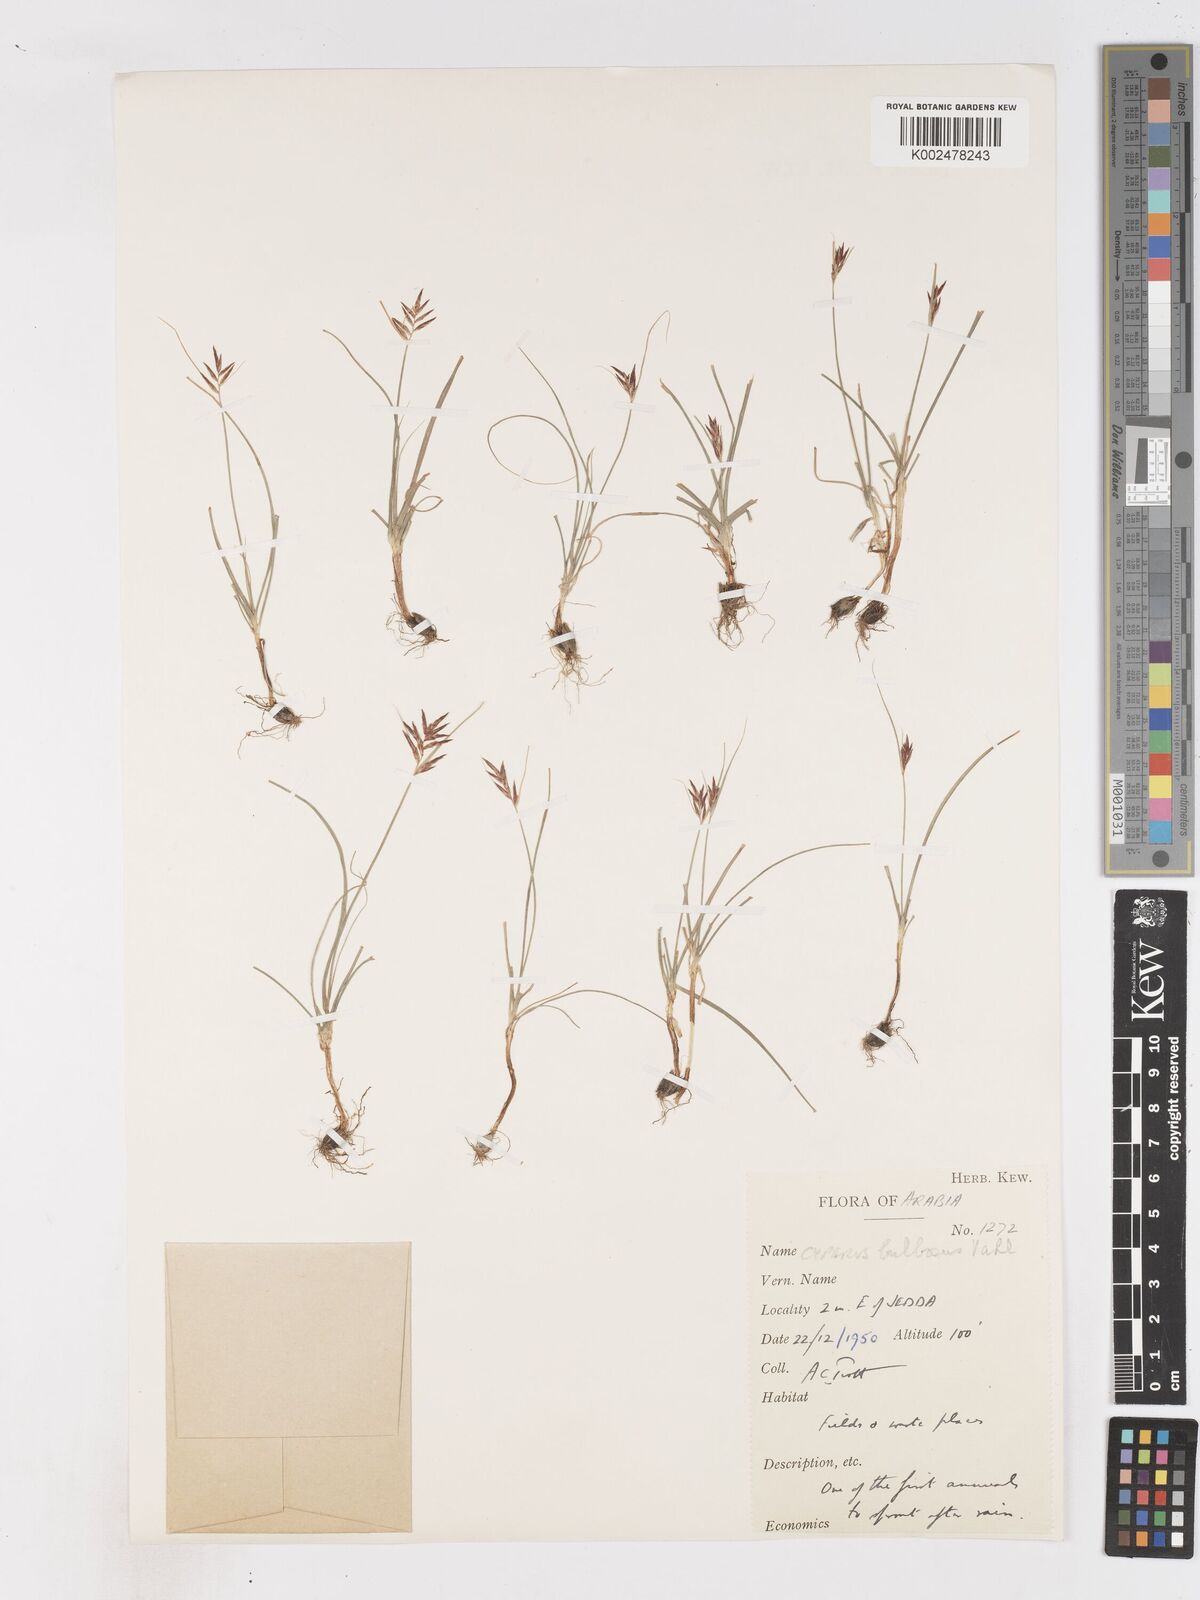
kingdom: Plantae
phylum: Tracheophyta
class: Liliopsida
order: Poales
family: Cyperaceae
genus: Cyperus
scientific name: Cyperus bulbosus
